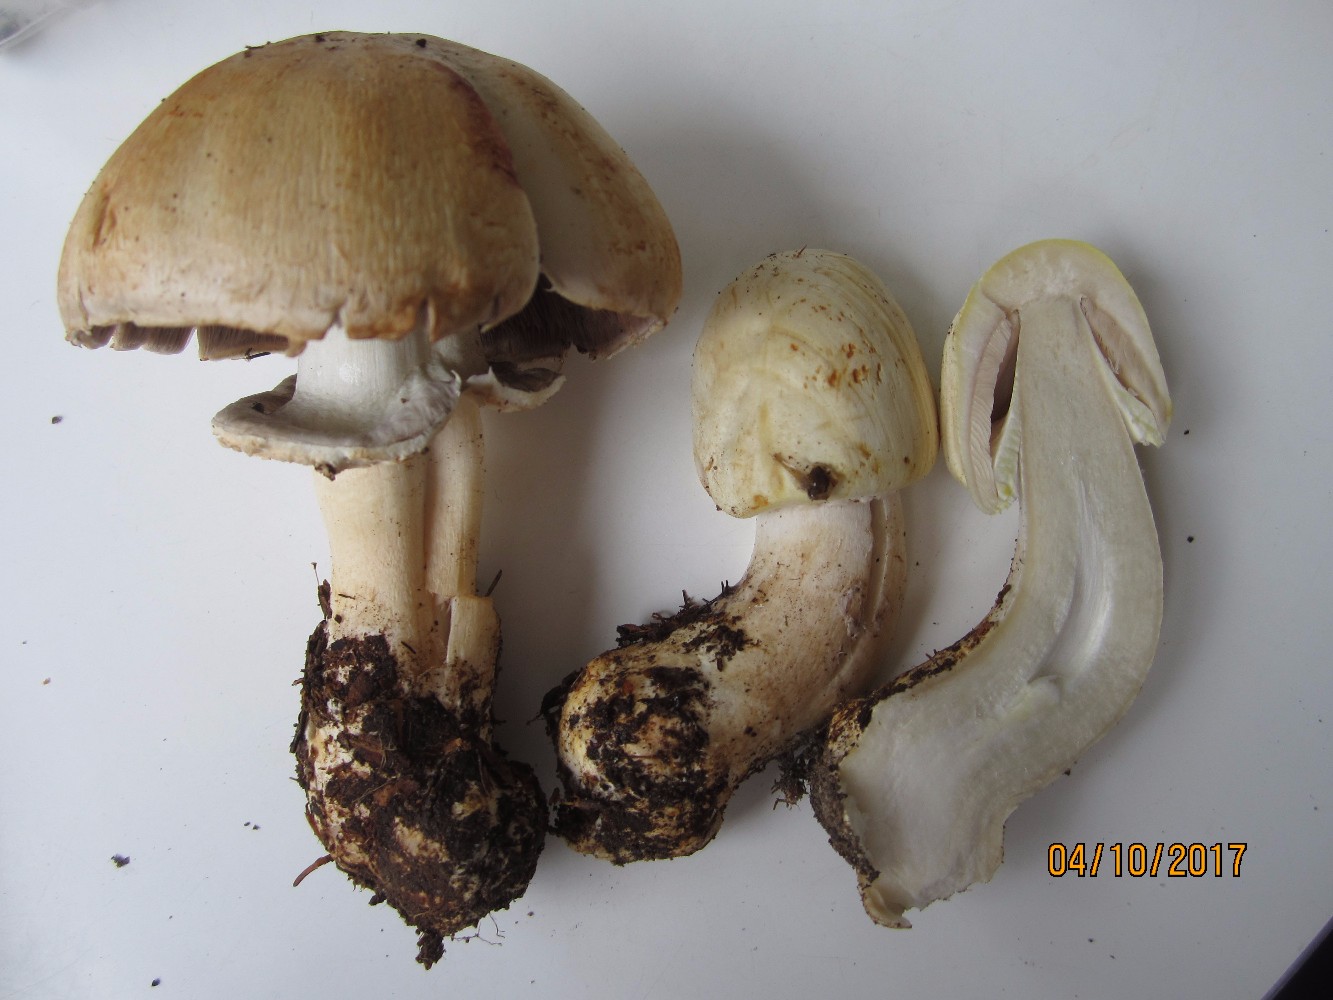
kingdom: Fungi
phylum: Basidiomycota
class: Agaricomycetes
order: Agaricales
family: Agaricaceae
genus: Agaricus
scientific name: Agaricus sylvicola
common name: gulhvid champignon
